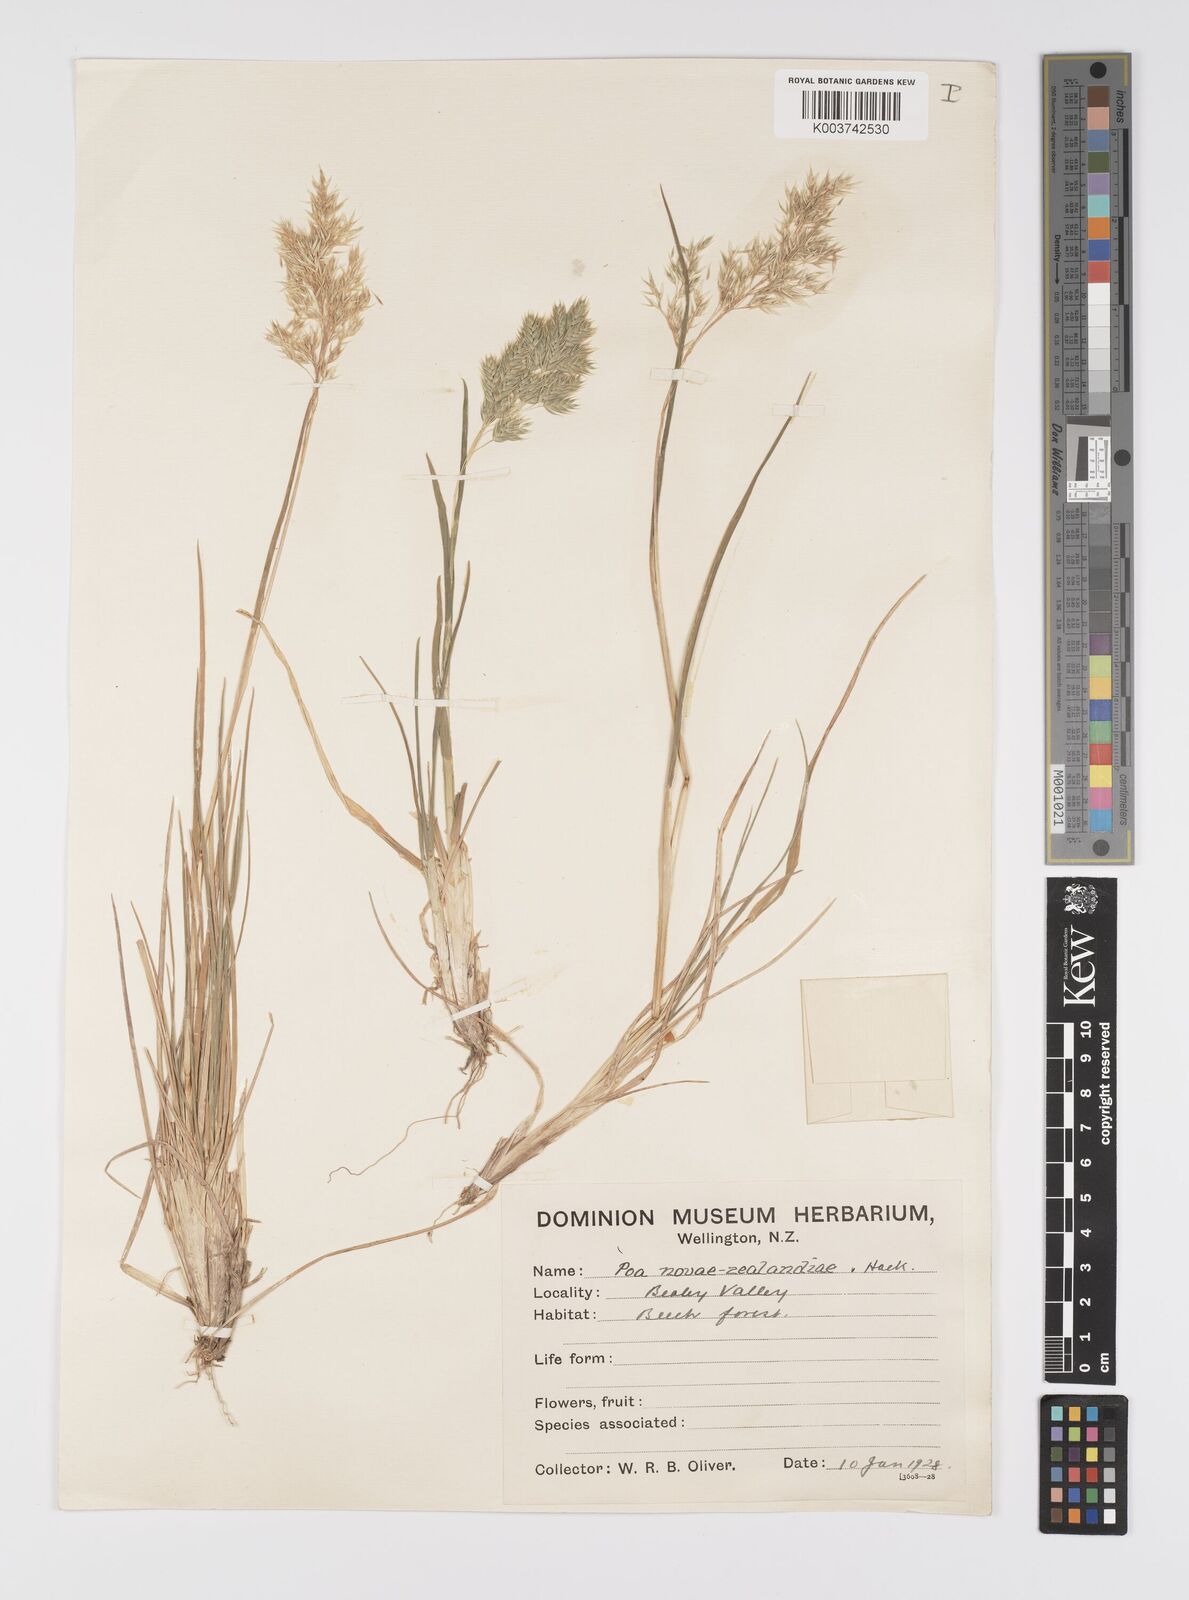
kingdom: Plantae
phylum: Tracheophyta
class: Liliopsida
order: Poales
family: Poaceae
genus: Poa
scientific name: Poa novae-zelandiae
